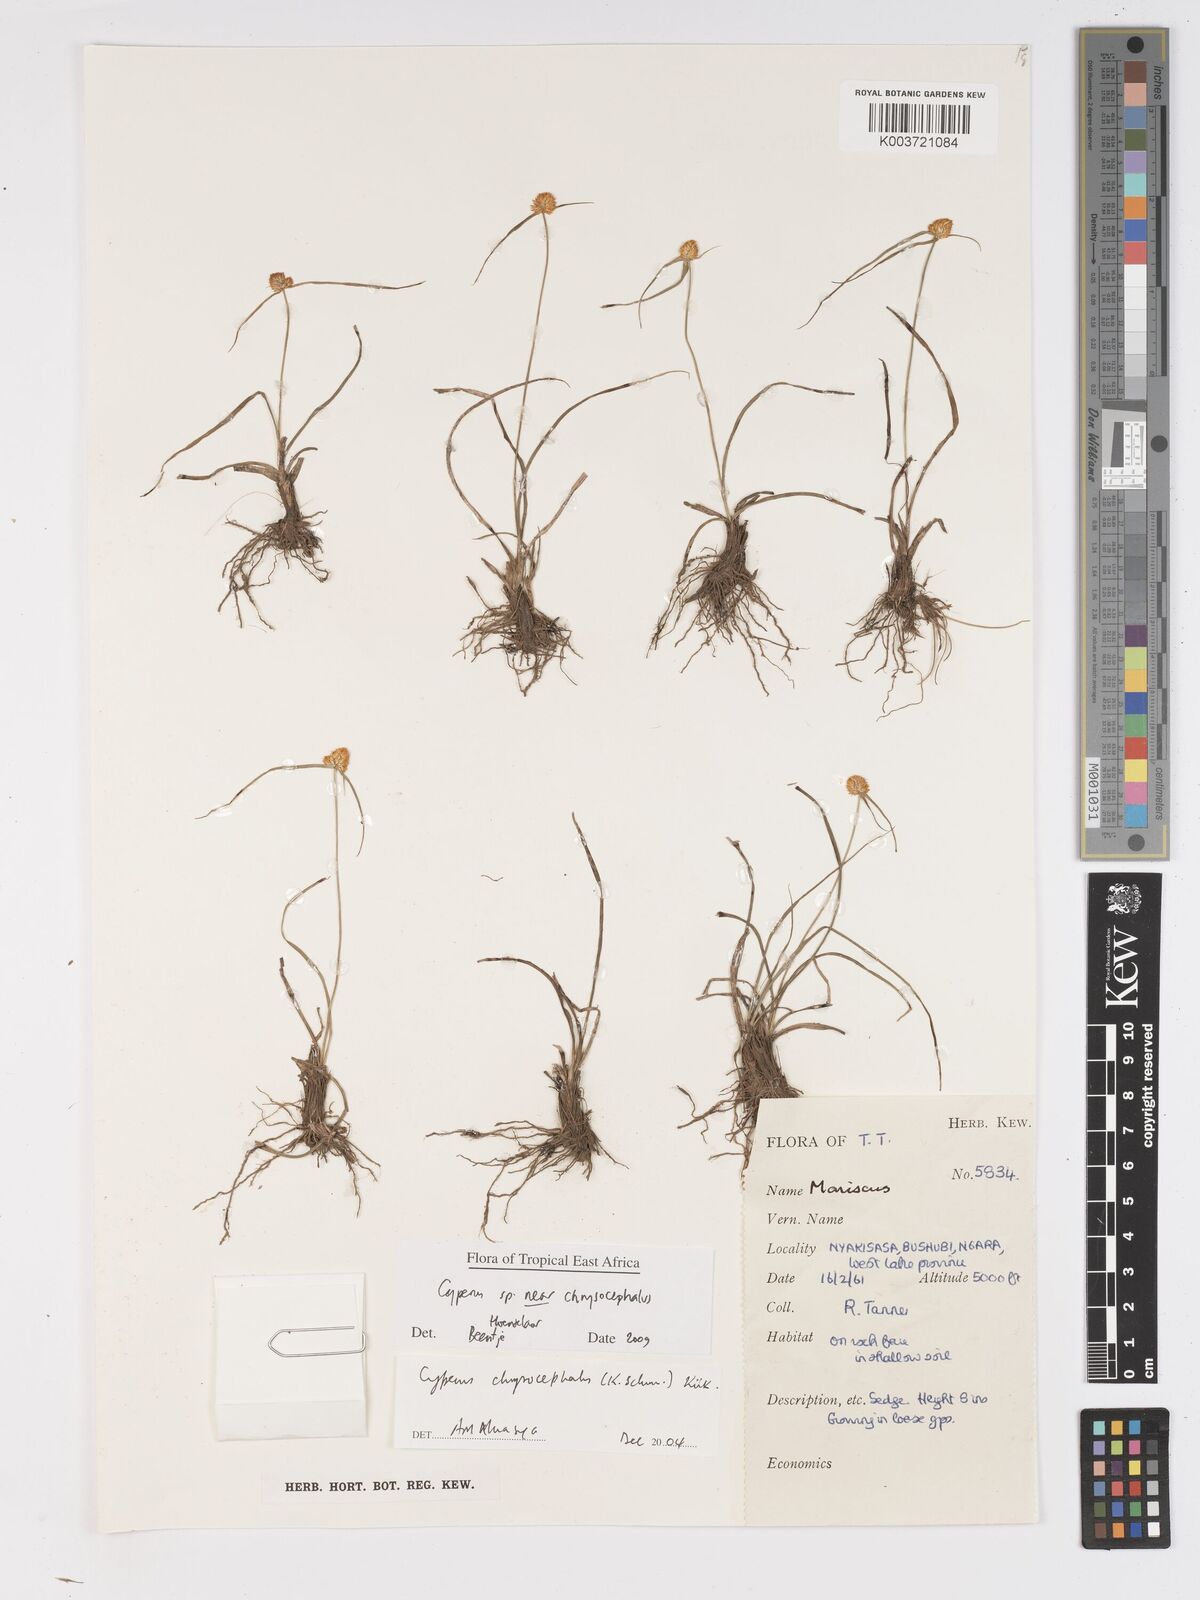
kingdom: Plantae
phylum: Tracheophyta
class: Liliopsida
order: Poales
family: Cyperaceae
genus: Cyperus
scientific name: Cyperus chrysocephalus
